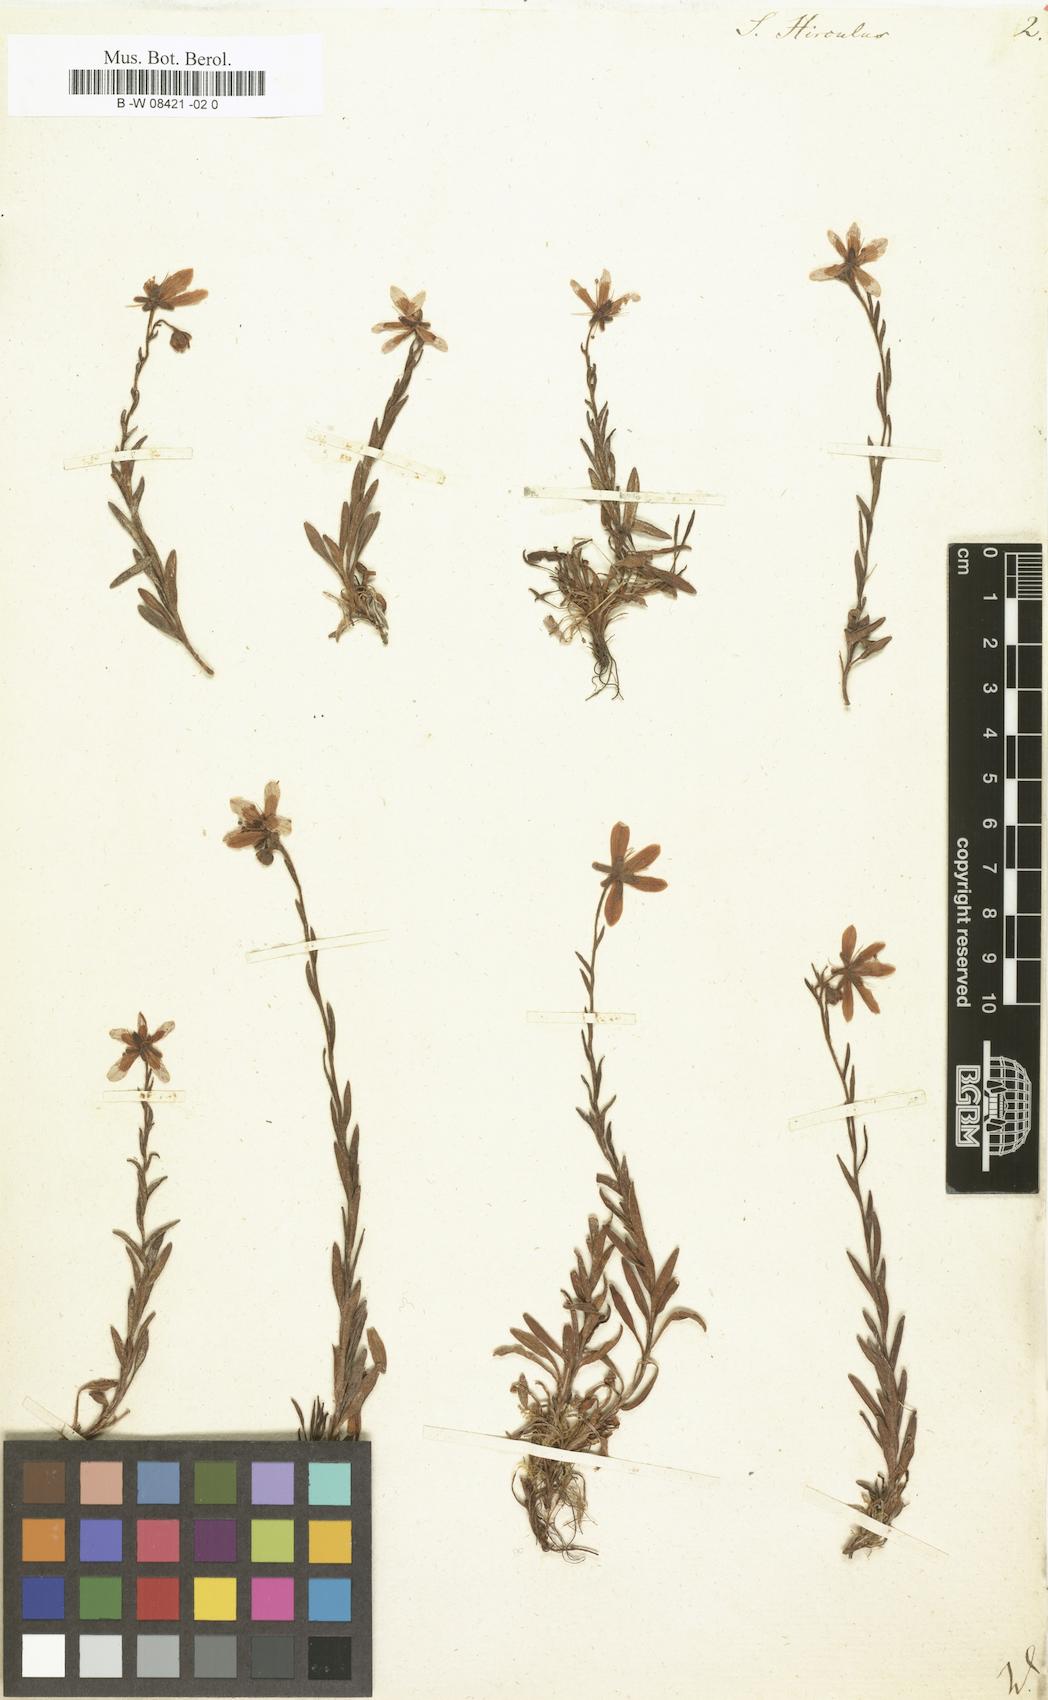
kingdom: Plantae
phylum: Tracheophyta
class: Magnoliopsida
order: Saxifragales
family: Saxifragaceae
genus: Saxifraga
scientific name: Saxifraga hirculus
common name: Yellow marsh saxifrage
